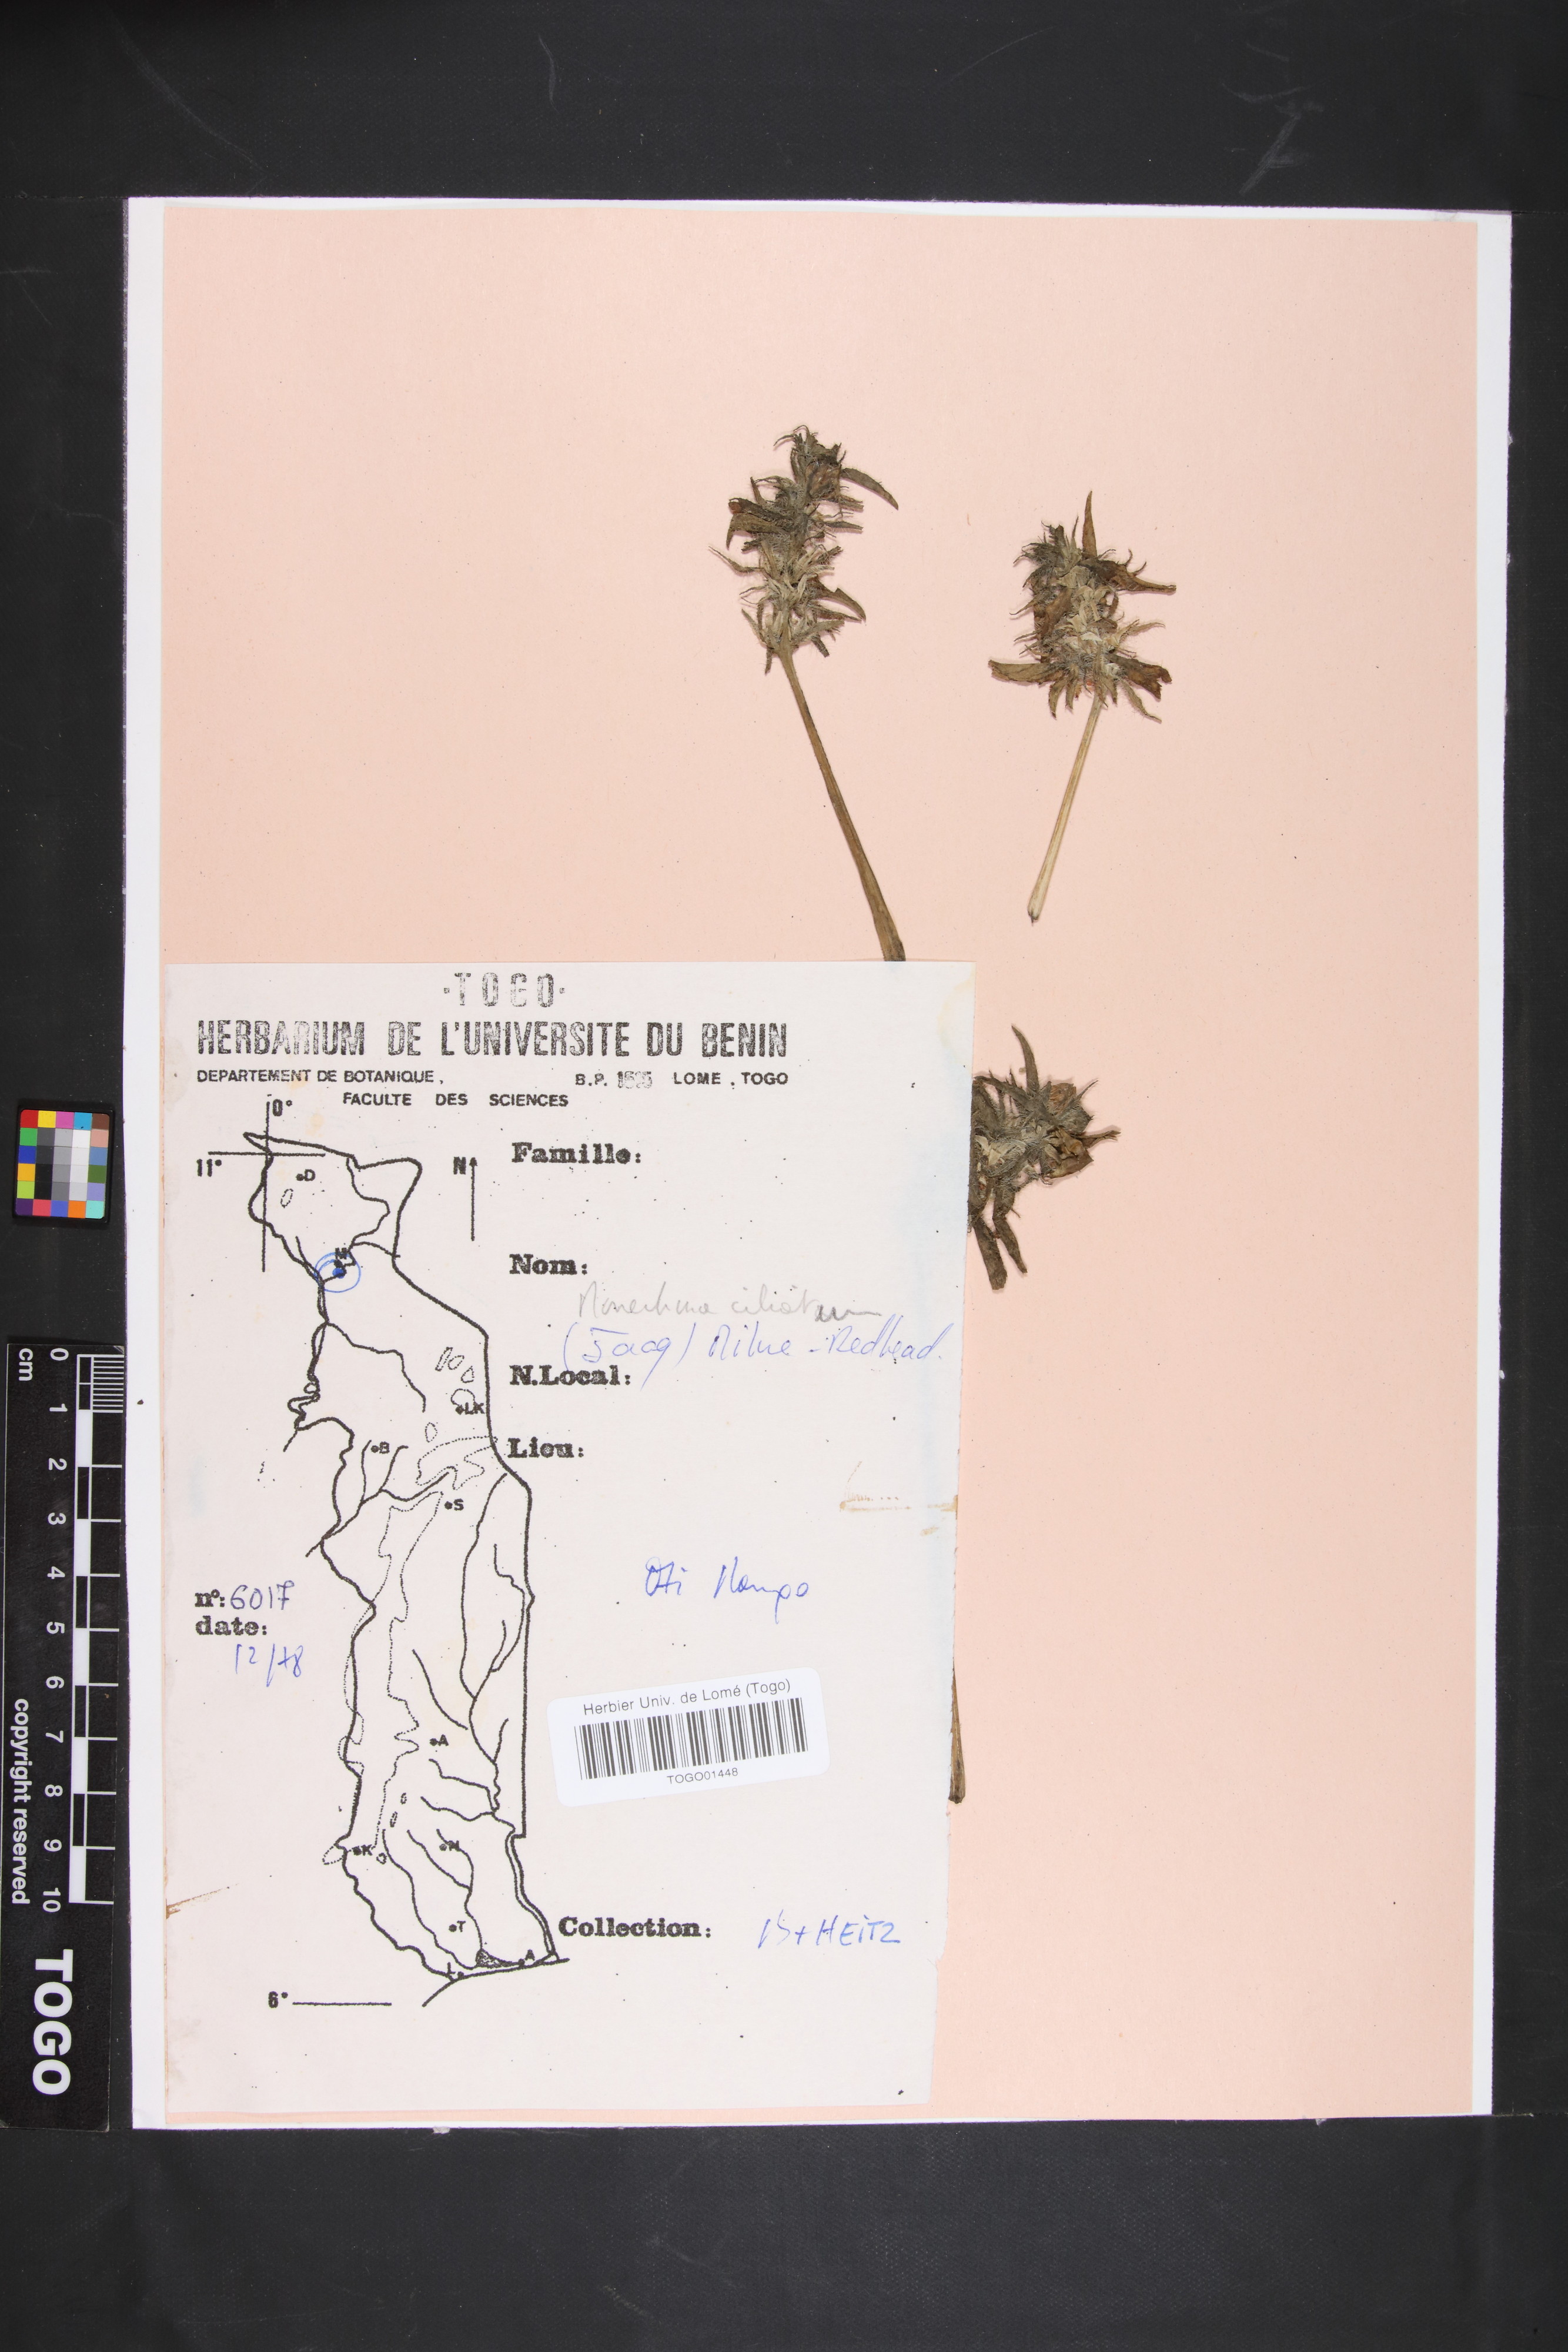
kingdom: Plantae
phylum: Tracheophyta
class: Magnoliopsida
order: Lamiales
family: Acanthaceae
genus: Pogonospermum
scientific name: Pogonospermum ciliare
